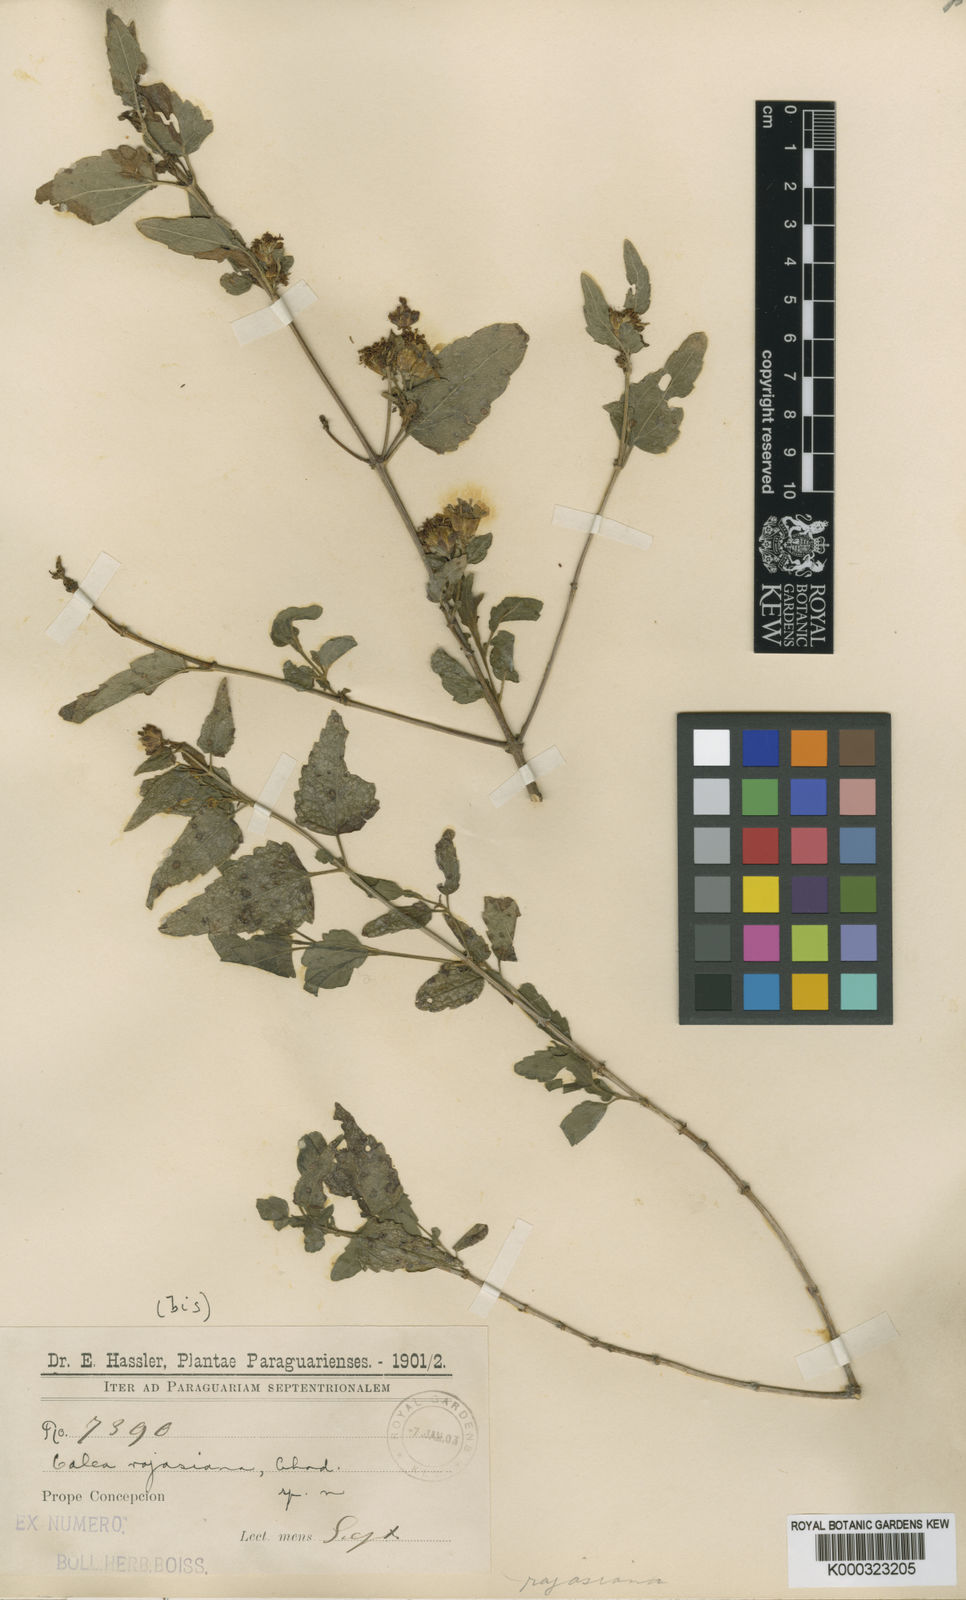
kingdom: Plantae
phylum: Tracheophyta
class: Magnoliopsida
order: Asterales
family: Asteraceae
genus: Calea
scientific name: Calea clematidea
